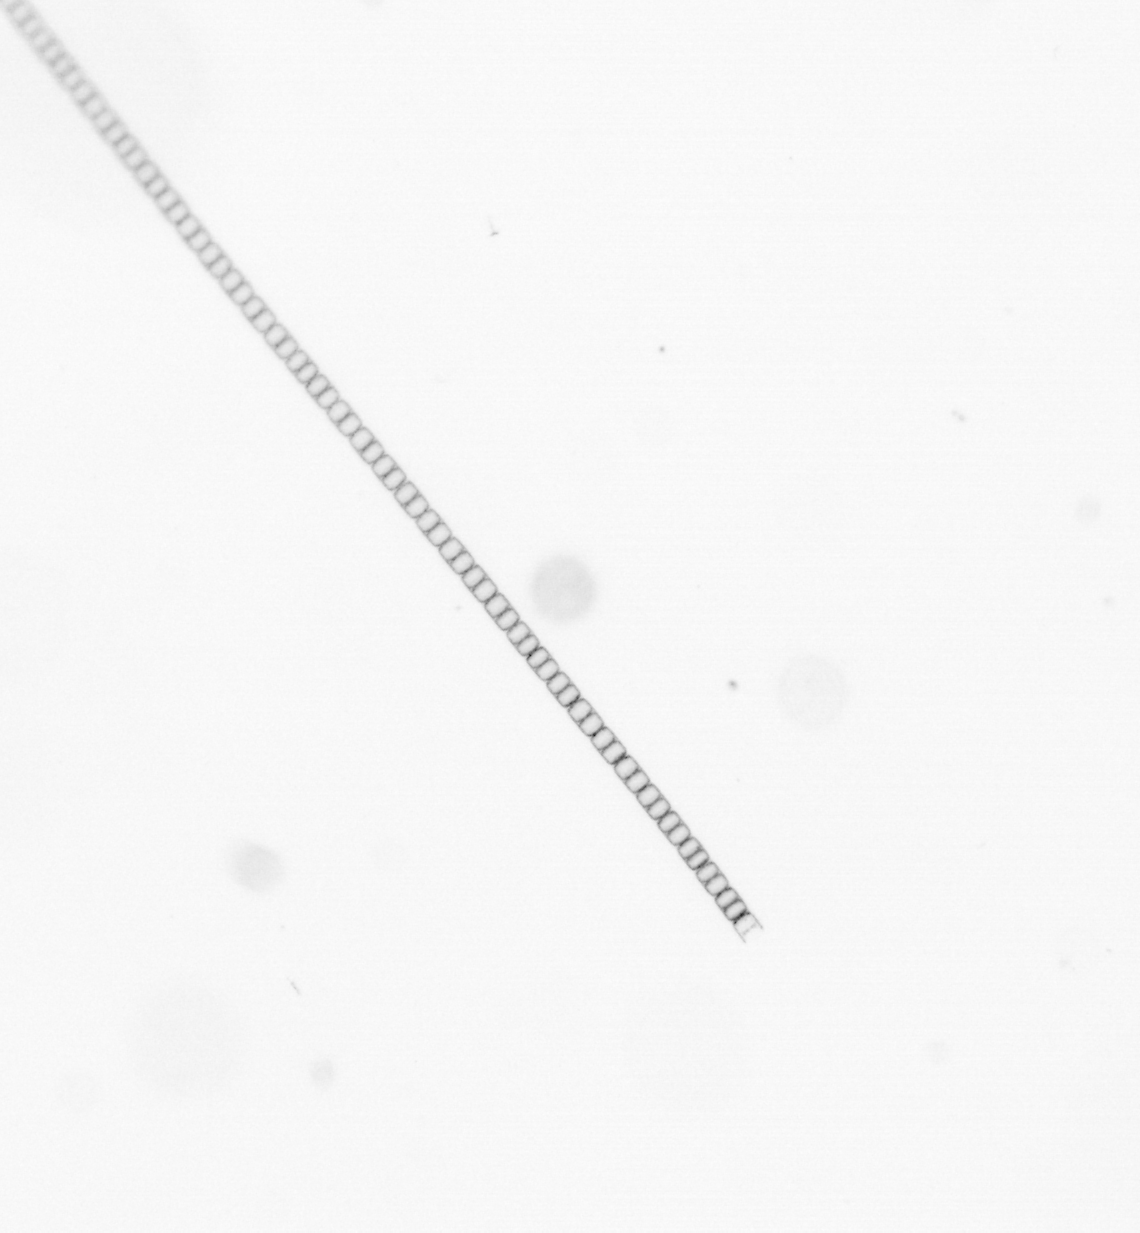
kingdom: Chromista
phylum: Ochrophyta
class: Bacillariophyceae
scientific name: Bacillariophyceae
